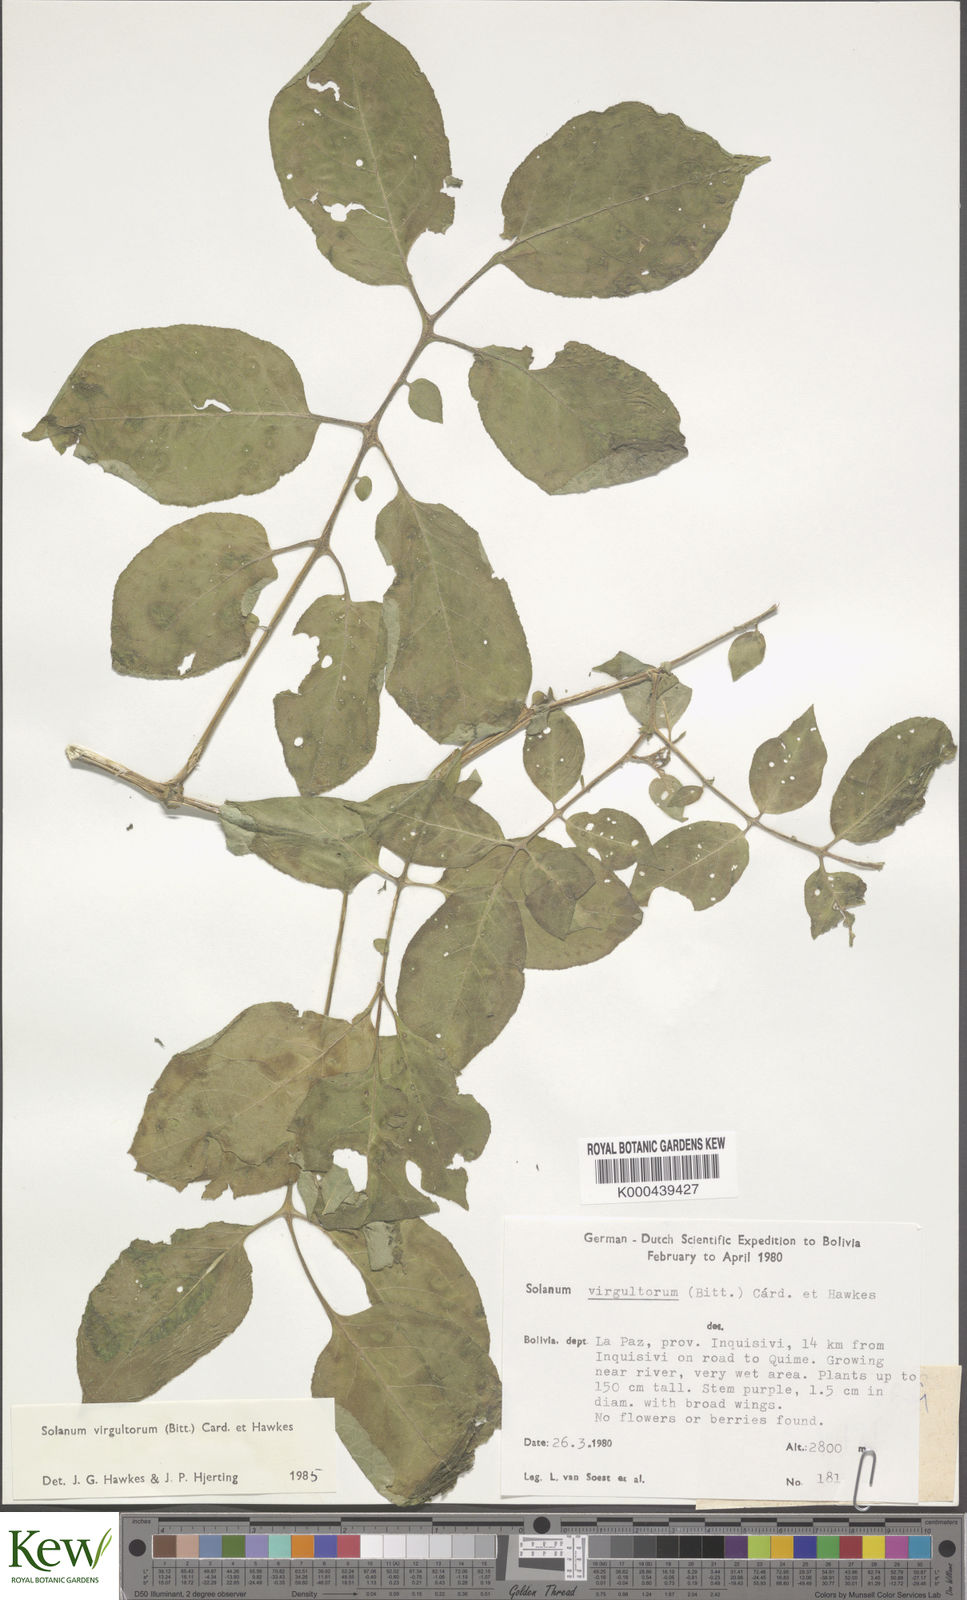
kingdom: Plantae
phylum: Tracheophyta
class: Magnoliopsida
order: Solanales
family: Solanaceae
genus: Solanum
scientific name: Solanum brevicaule
